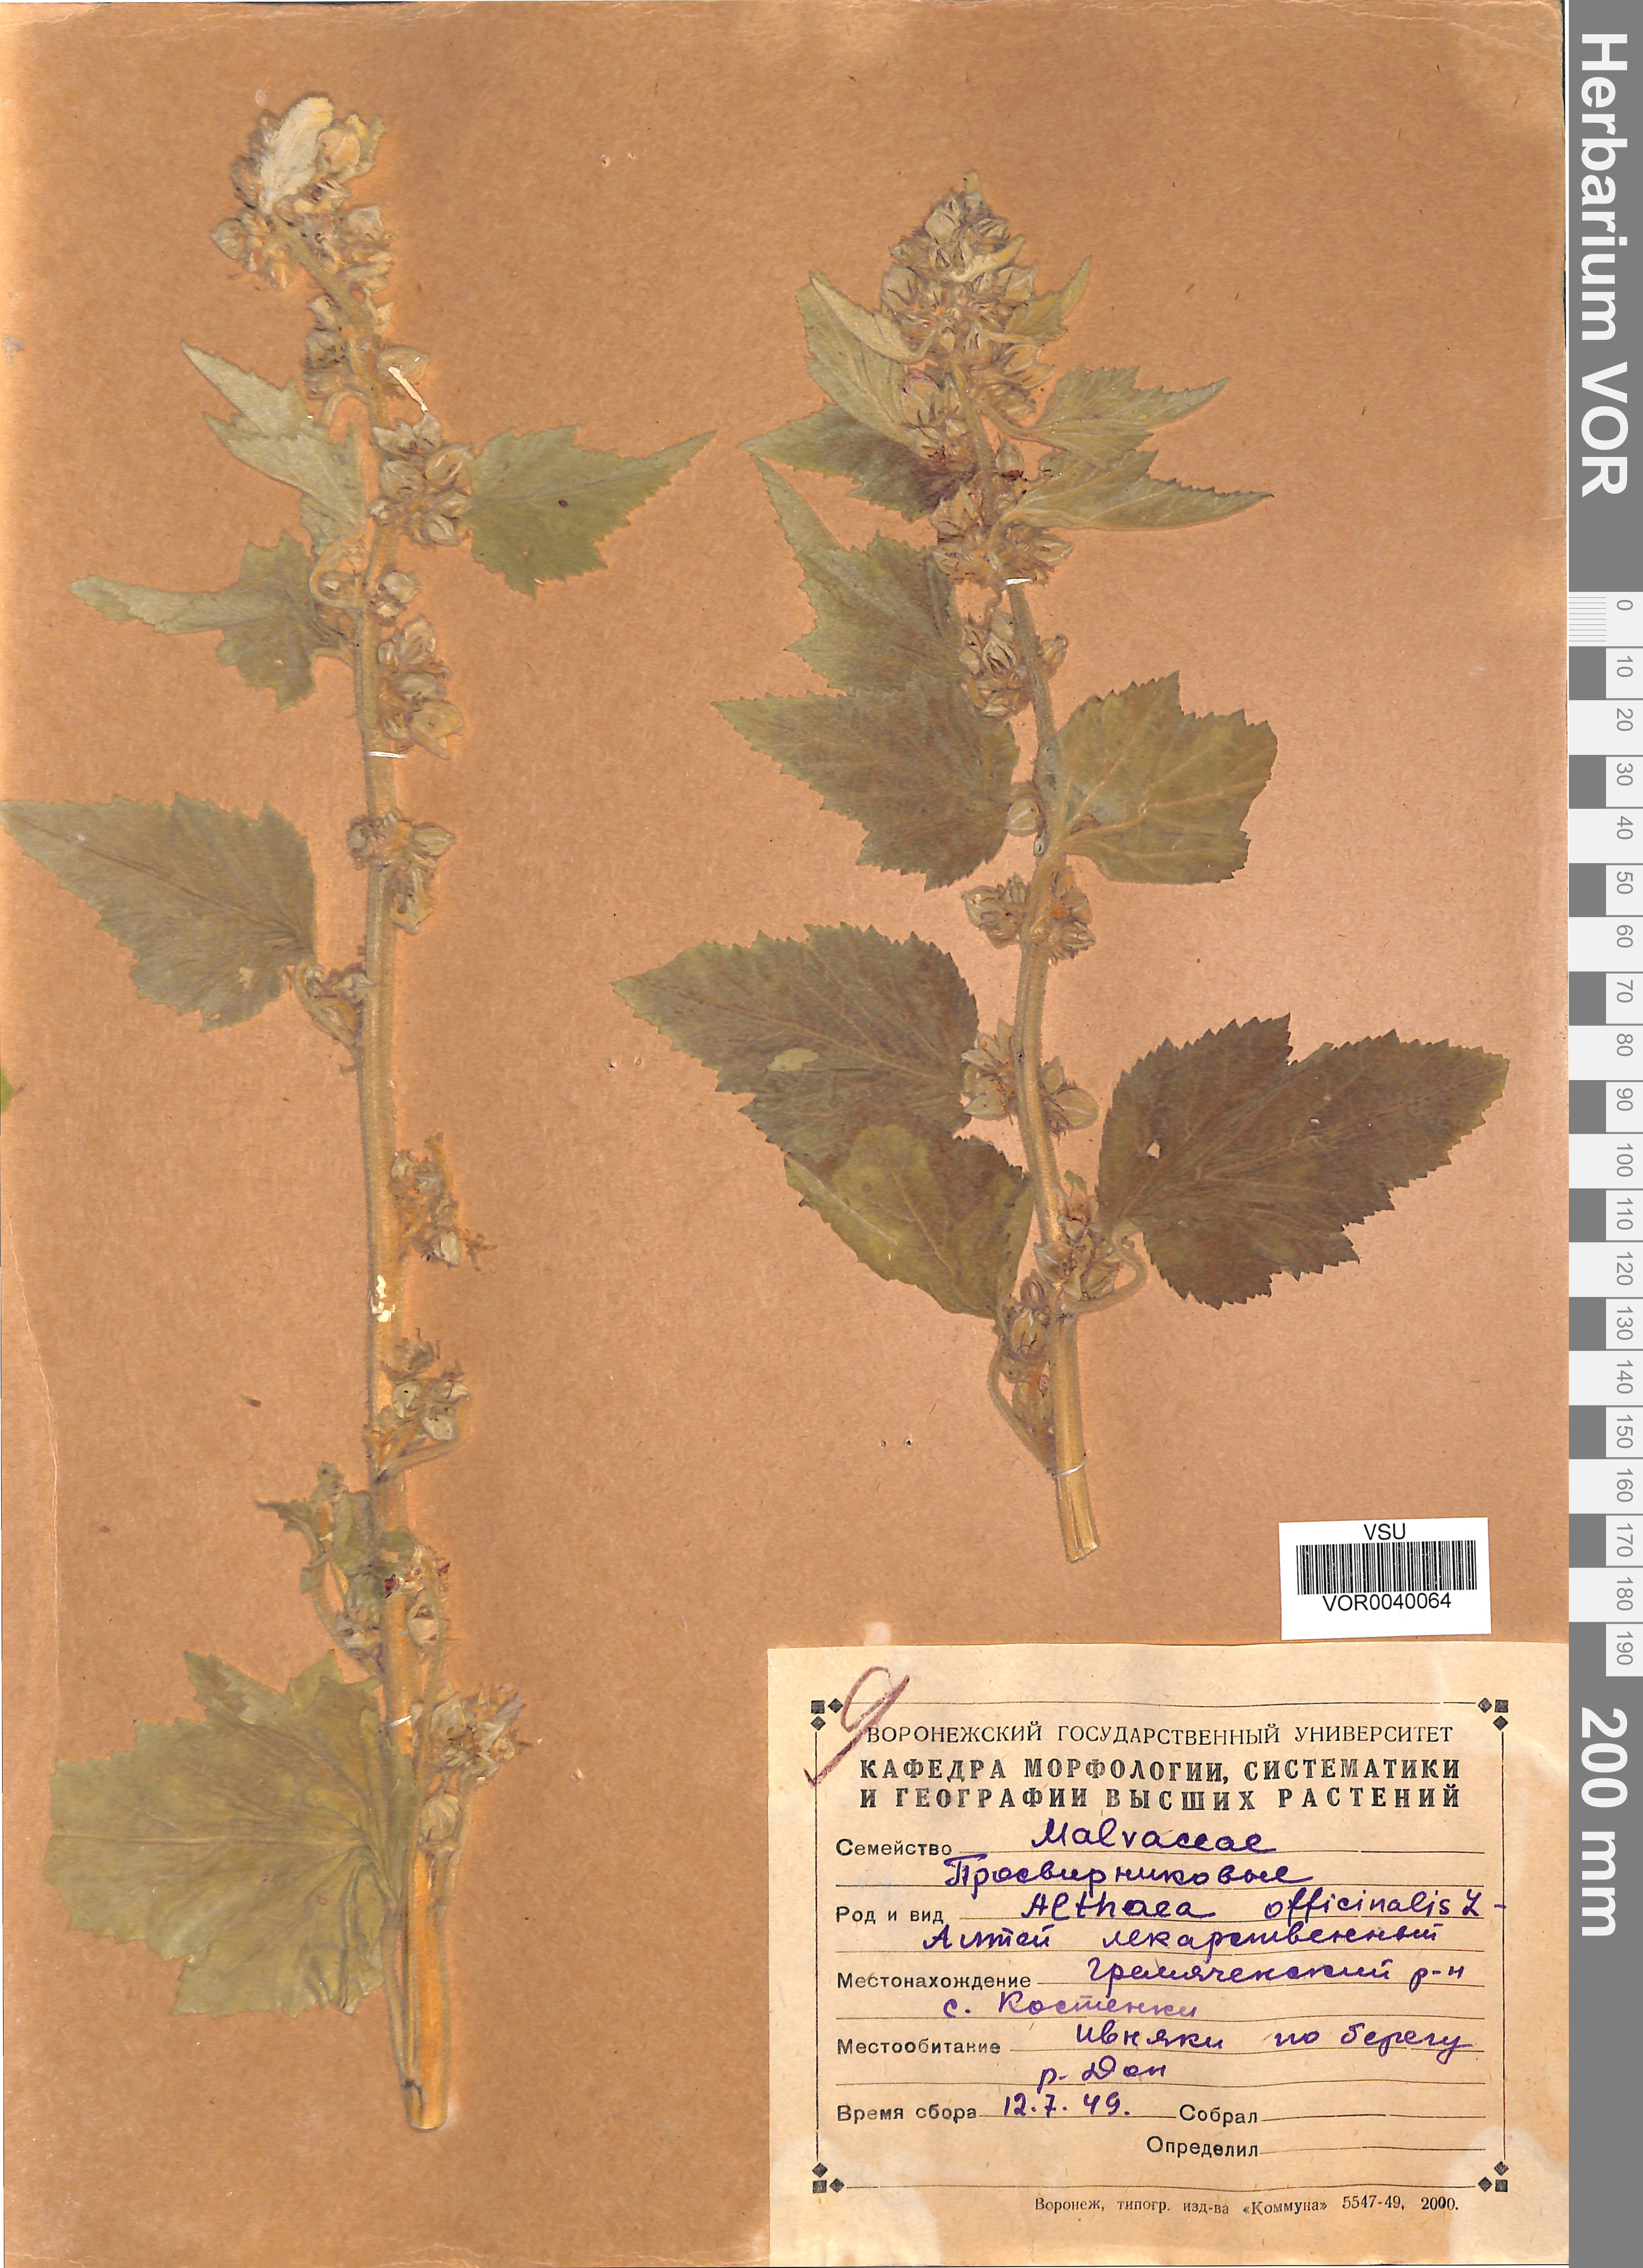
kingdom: Plantae
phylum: Tracheophyta
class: Magnoliopsida
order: Malvales
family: Malvaceae
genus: Althaea
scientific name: Althaea officinalis
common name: Marsh-mallow
